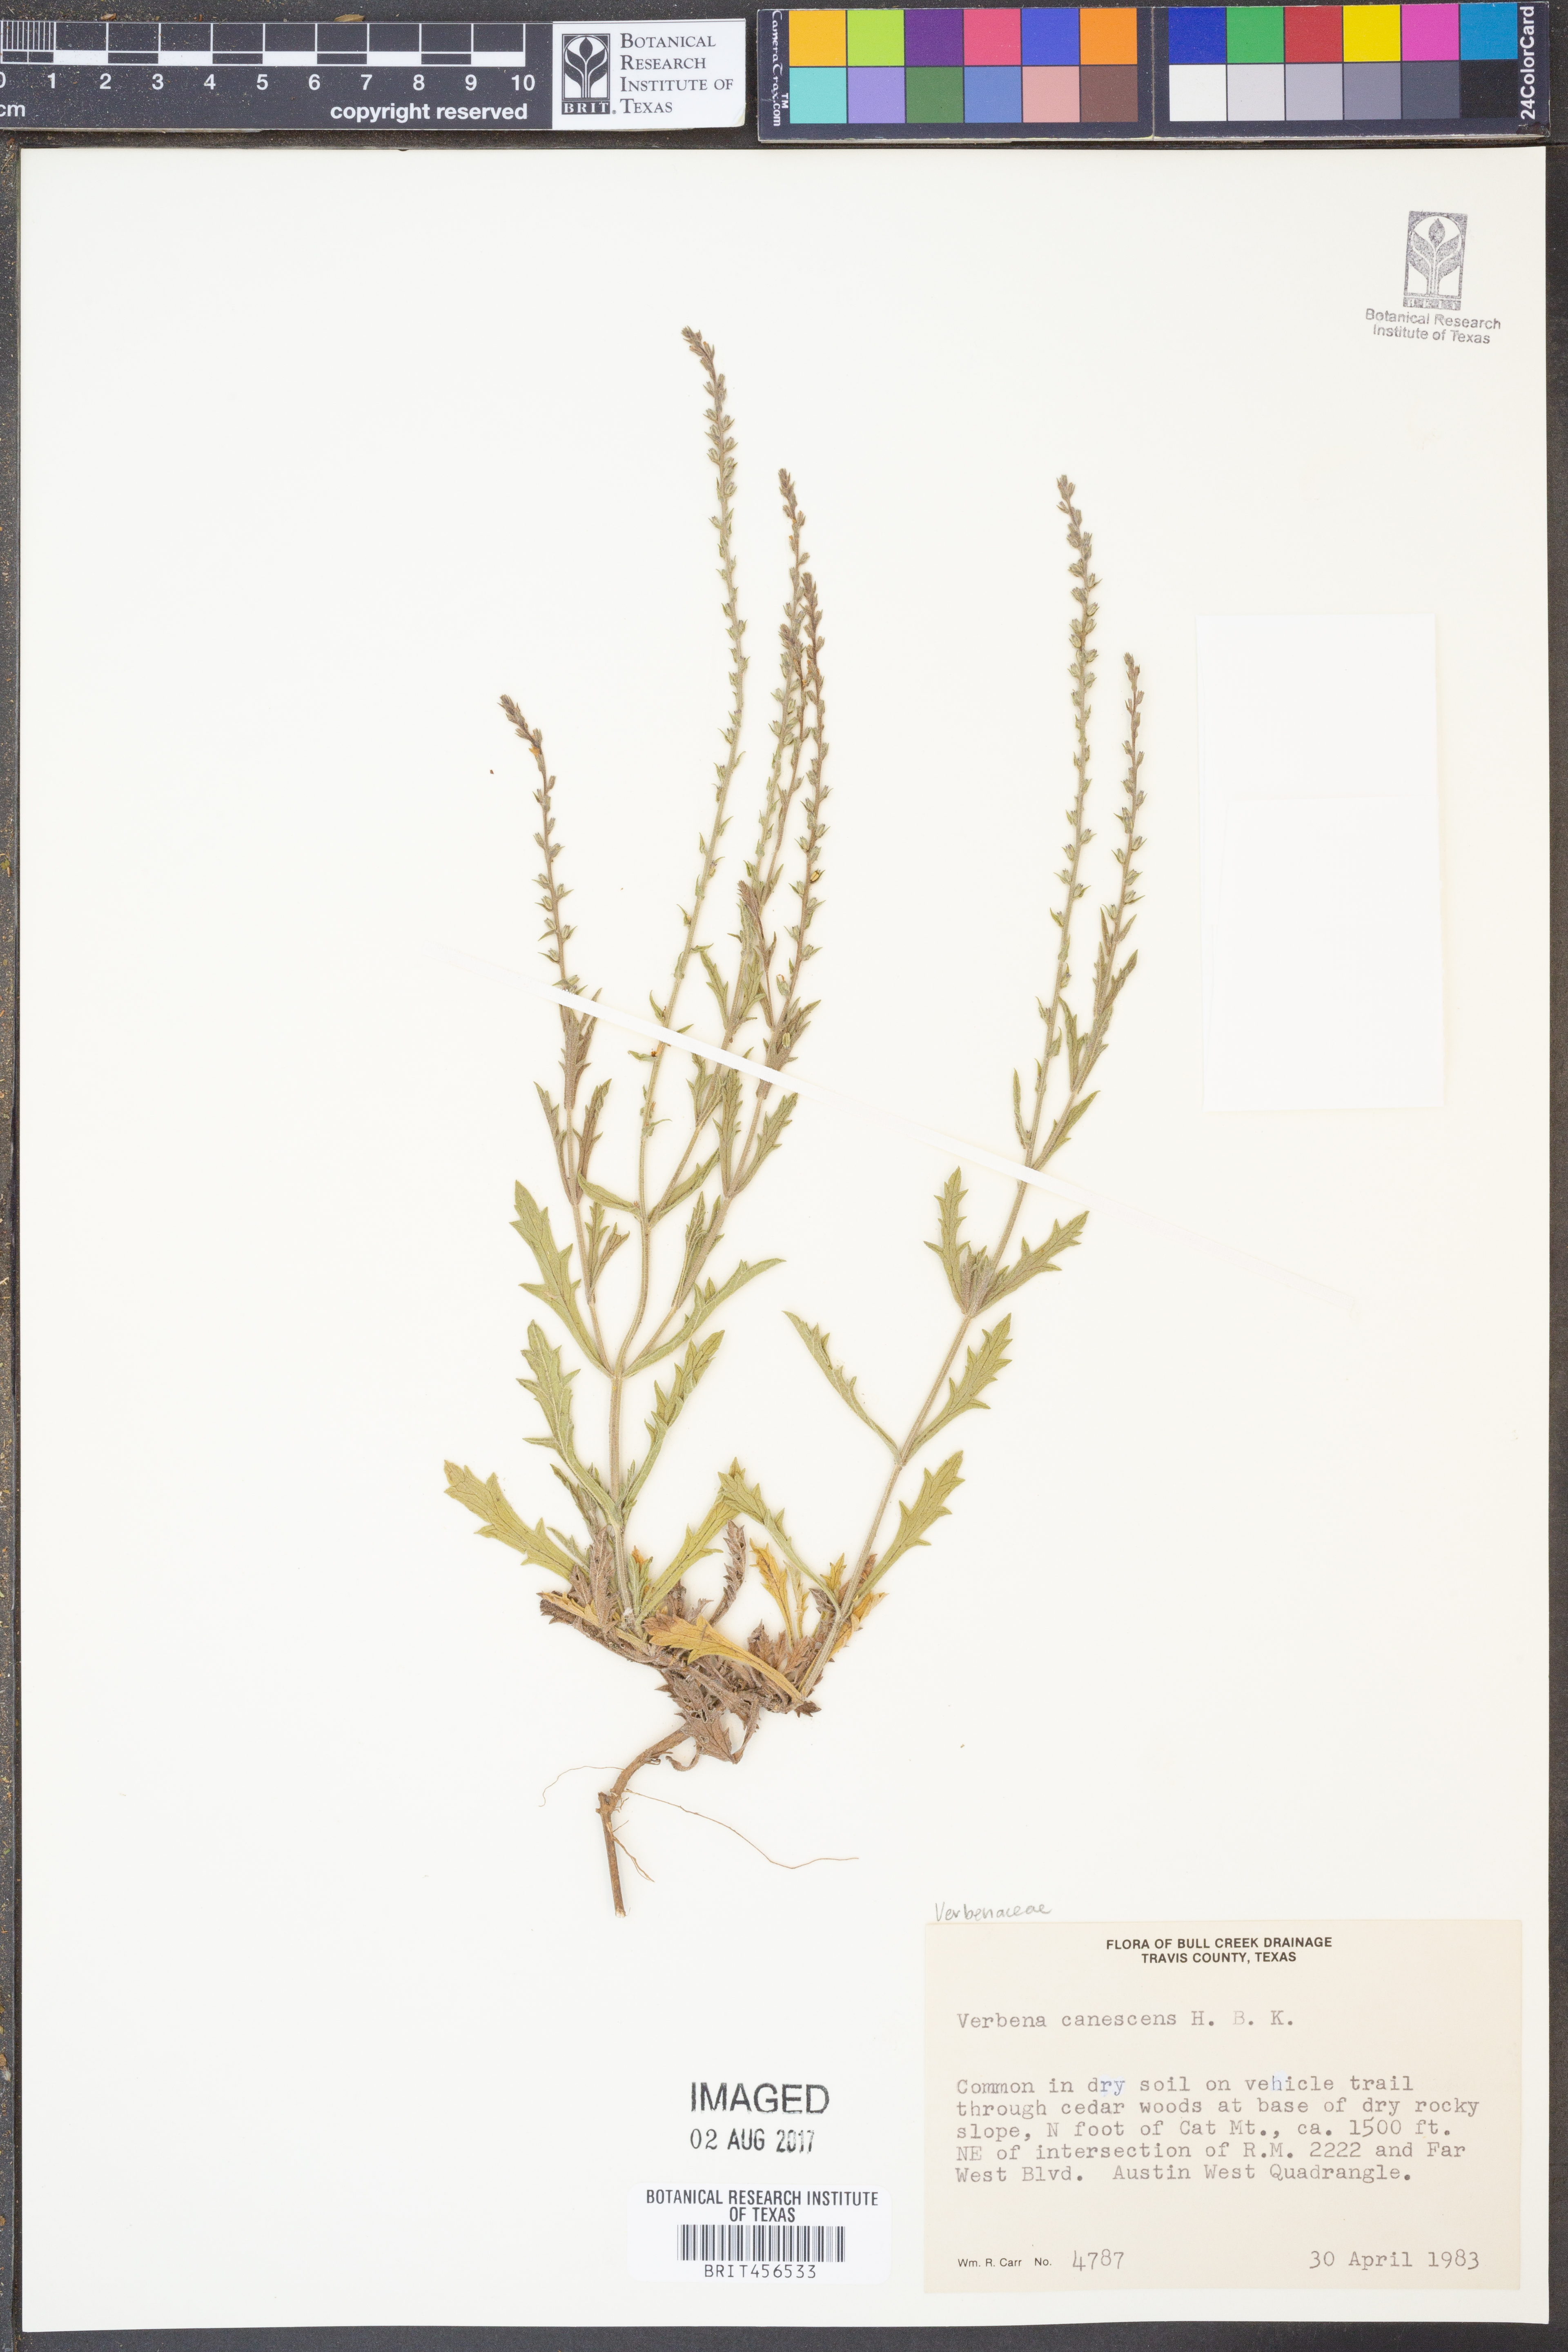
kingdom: Plantae
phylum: Tracheophyta
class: Magnoliopsida
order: Lamiales
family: Verbenaceae
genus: Verbena
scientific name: Verbena canescens
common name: Gray vervain
